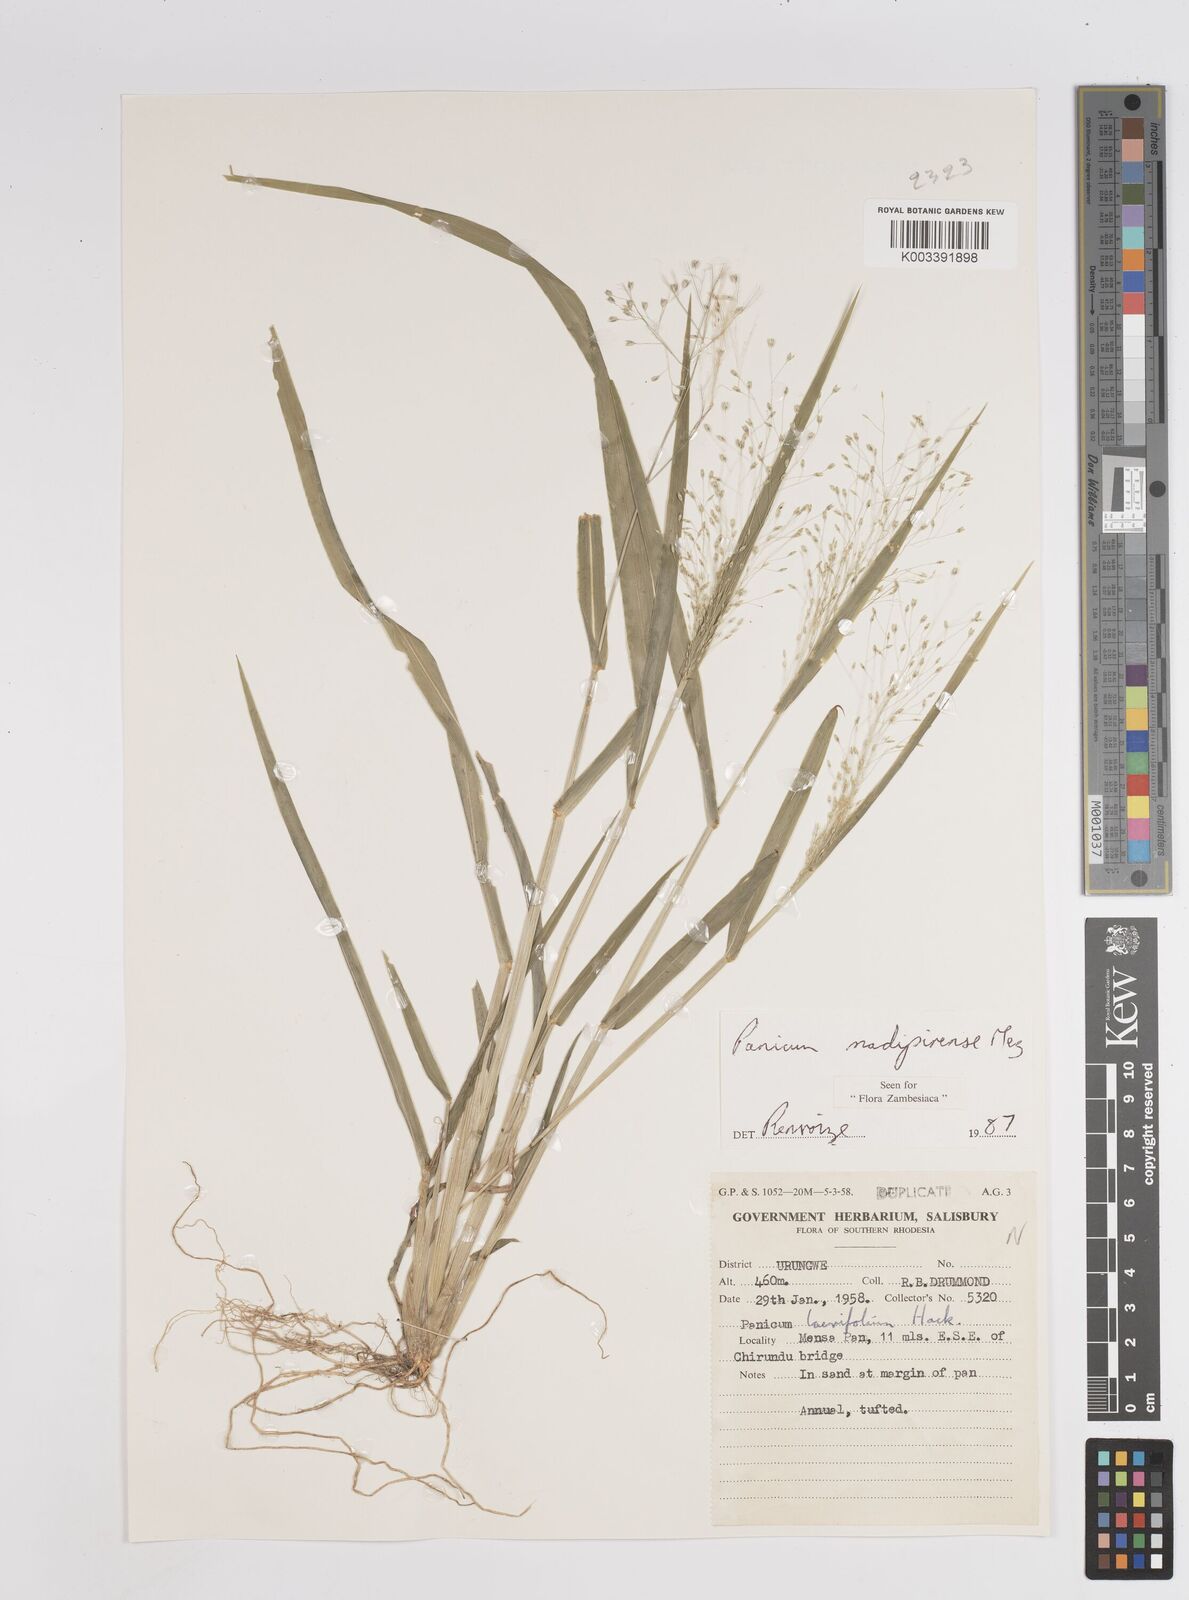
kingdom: Plantae
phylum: Tracheophyta
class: Liliopsida
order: Poales
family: Poaceae
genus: Panicum
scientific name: Panicum madipirense
